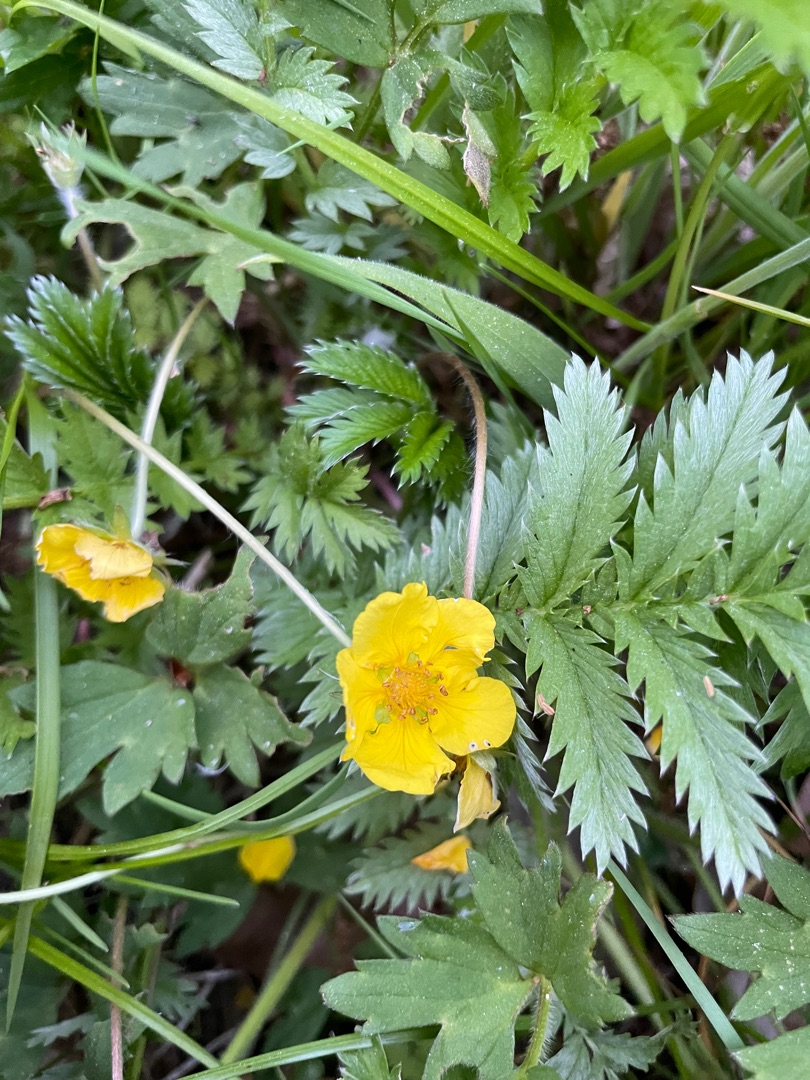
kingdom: Plantae
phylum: Tracheophyta
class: Magnoliopsida
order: Rosales
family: Rosaceae
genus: Argentina
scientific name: Argentina anserina
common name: Gåsepotentil
